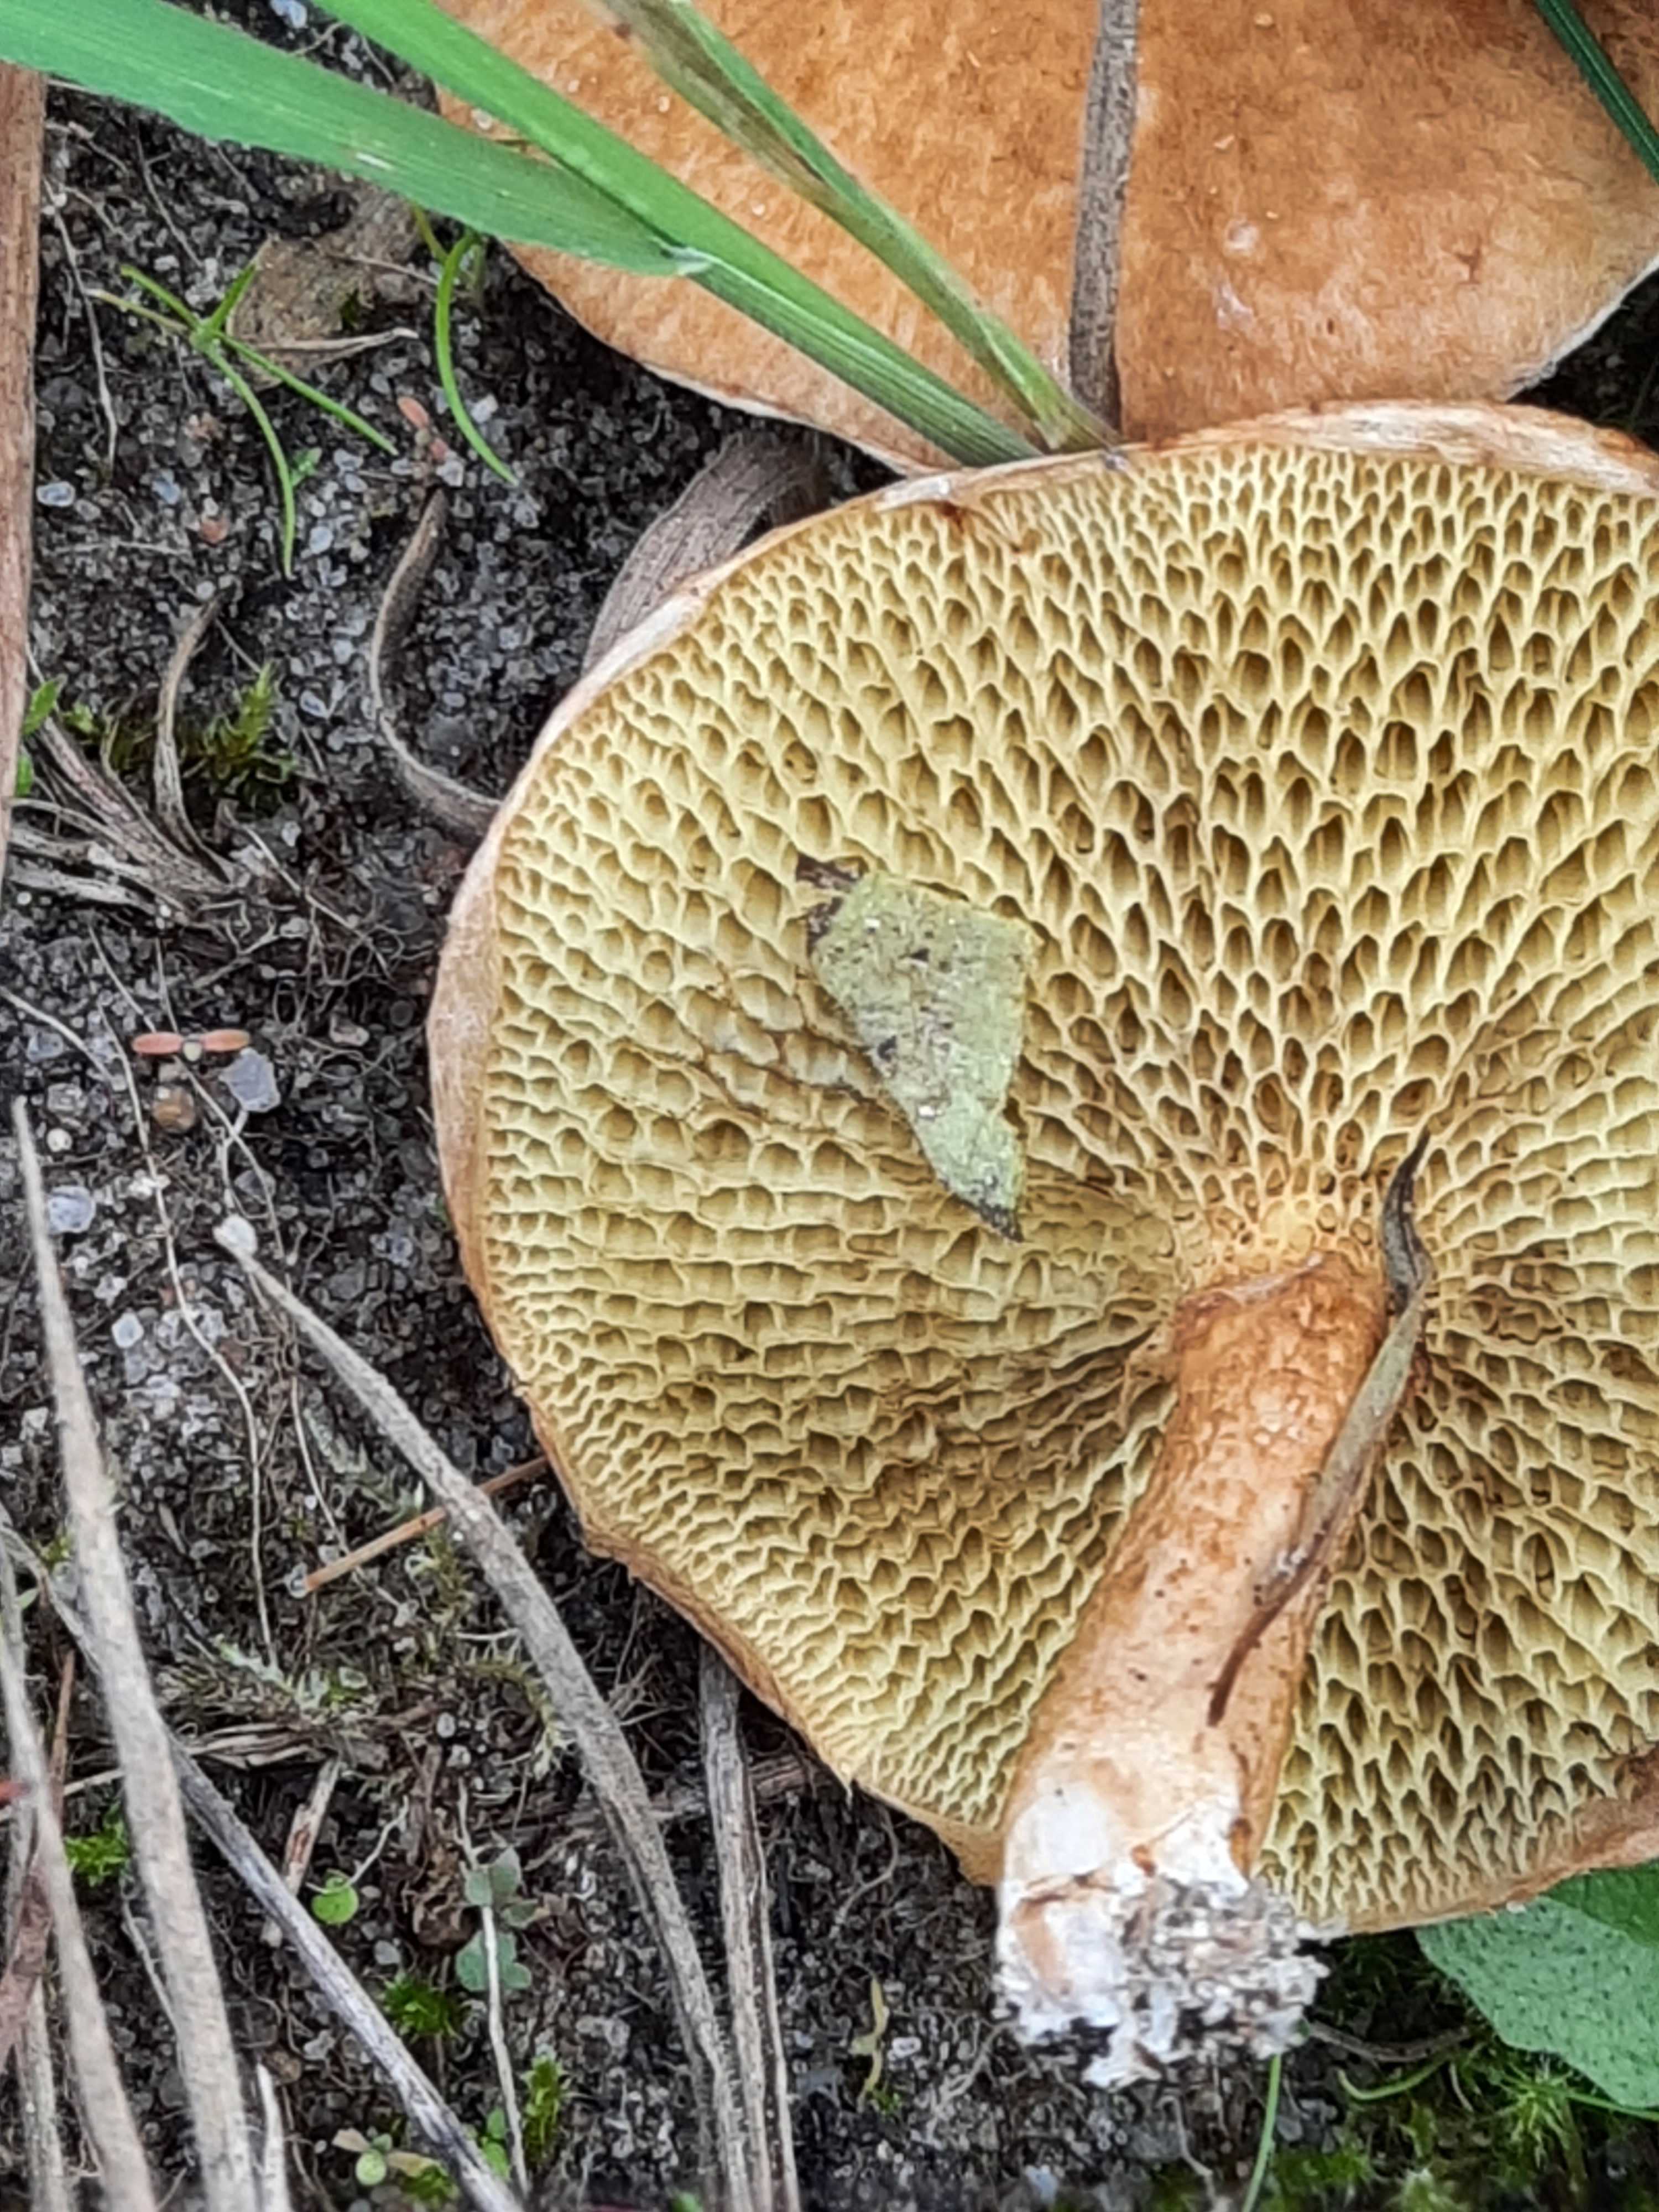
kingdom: Fungi
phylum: Basidiomycota
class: Agaricomycetes
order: Boletales
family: Suillaceae
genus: Suillus
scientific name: Suillus cavipes
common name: hulstokket slimrørhat
